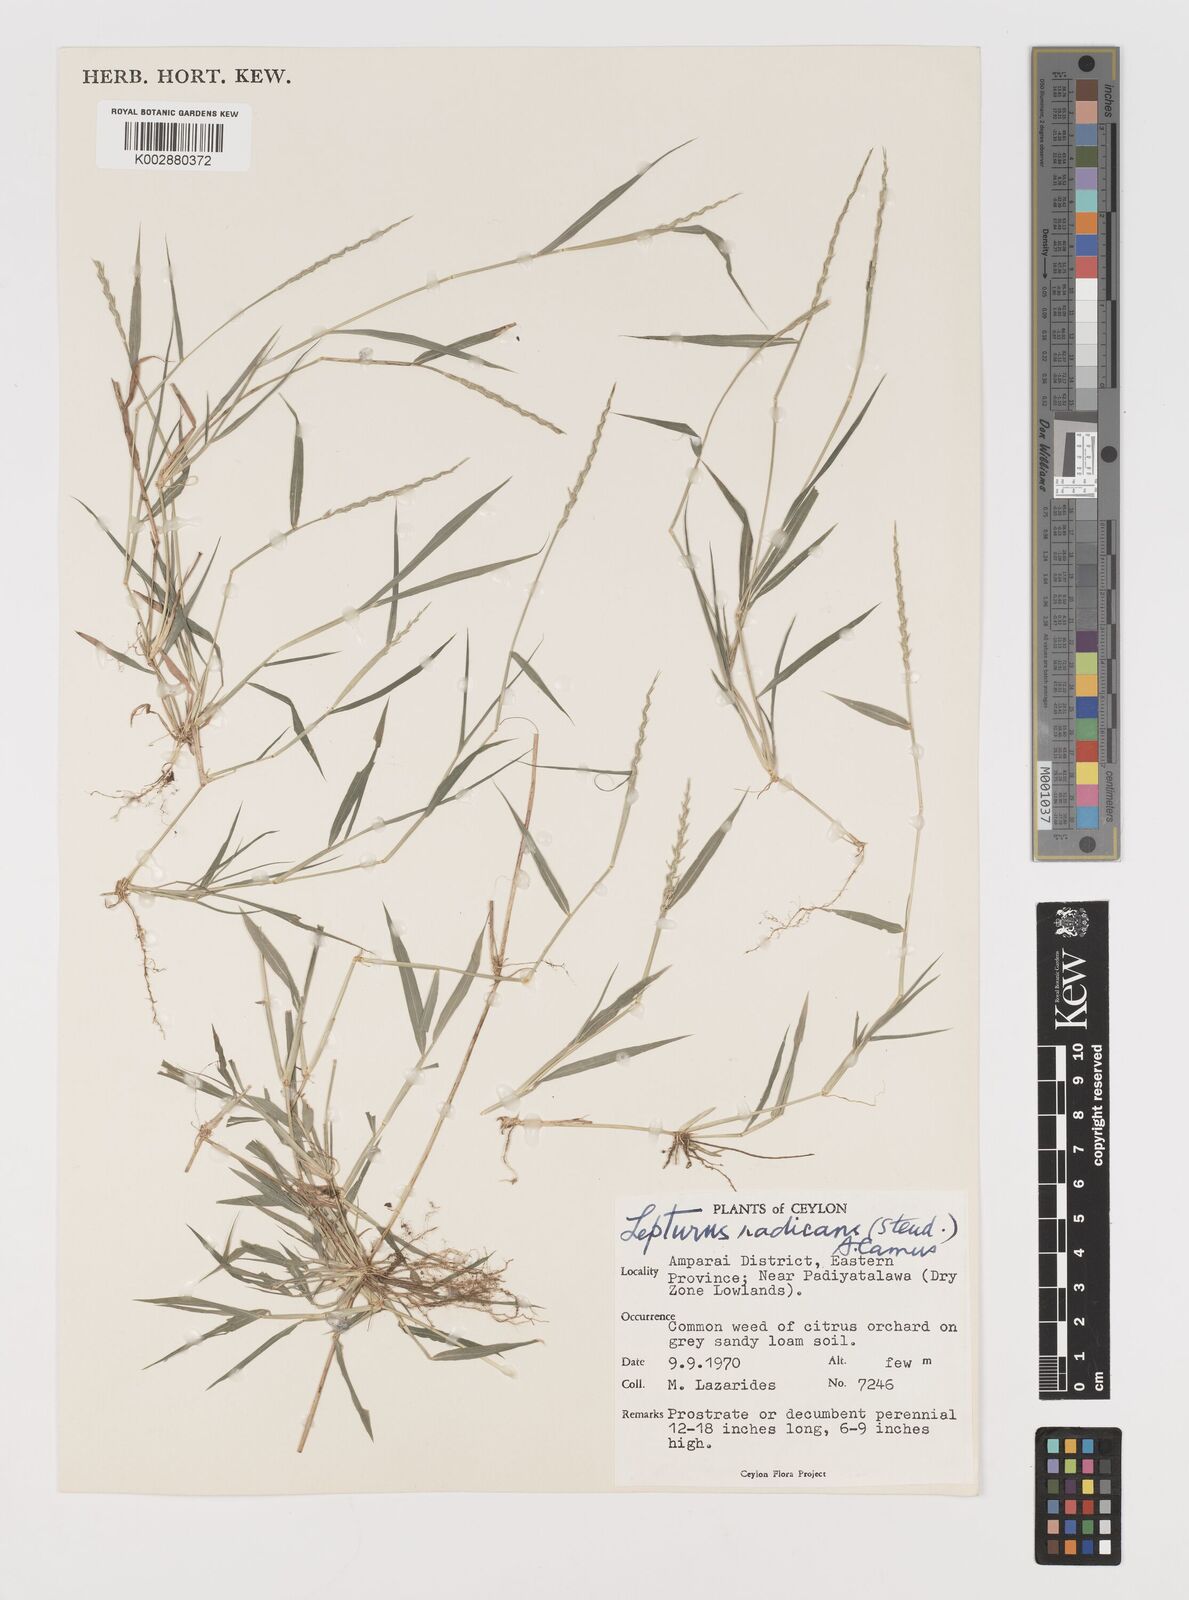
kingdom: Plantae
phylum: Tracheophyta
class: Liliopsida
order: Poales
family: Poaceae
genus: Lepturus
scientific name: Lepturus radicans
